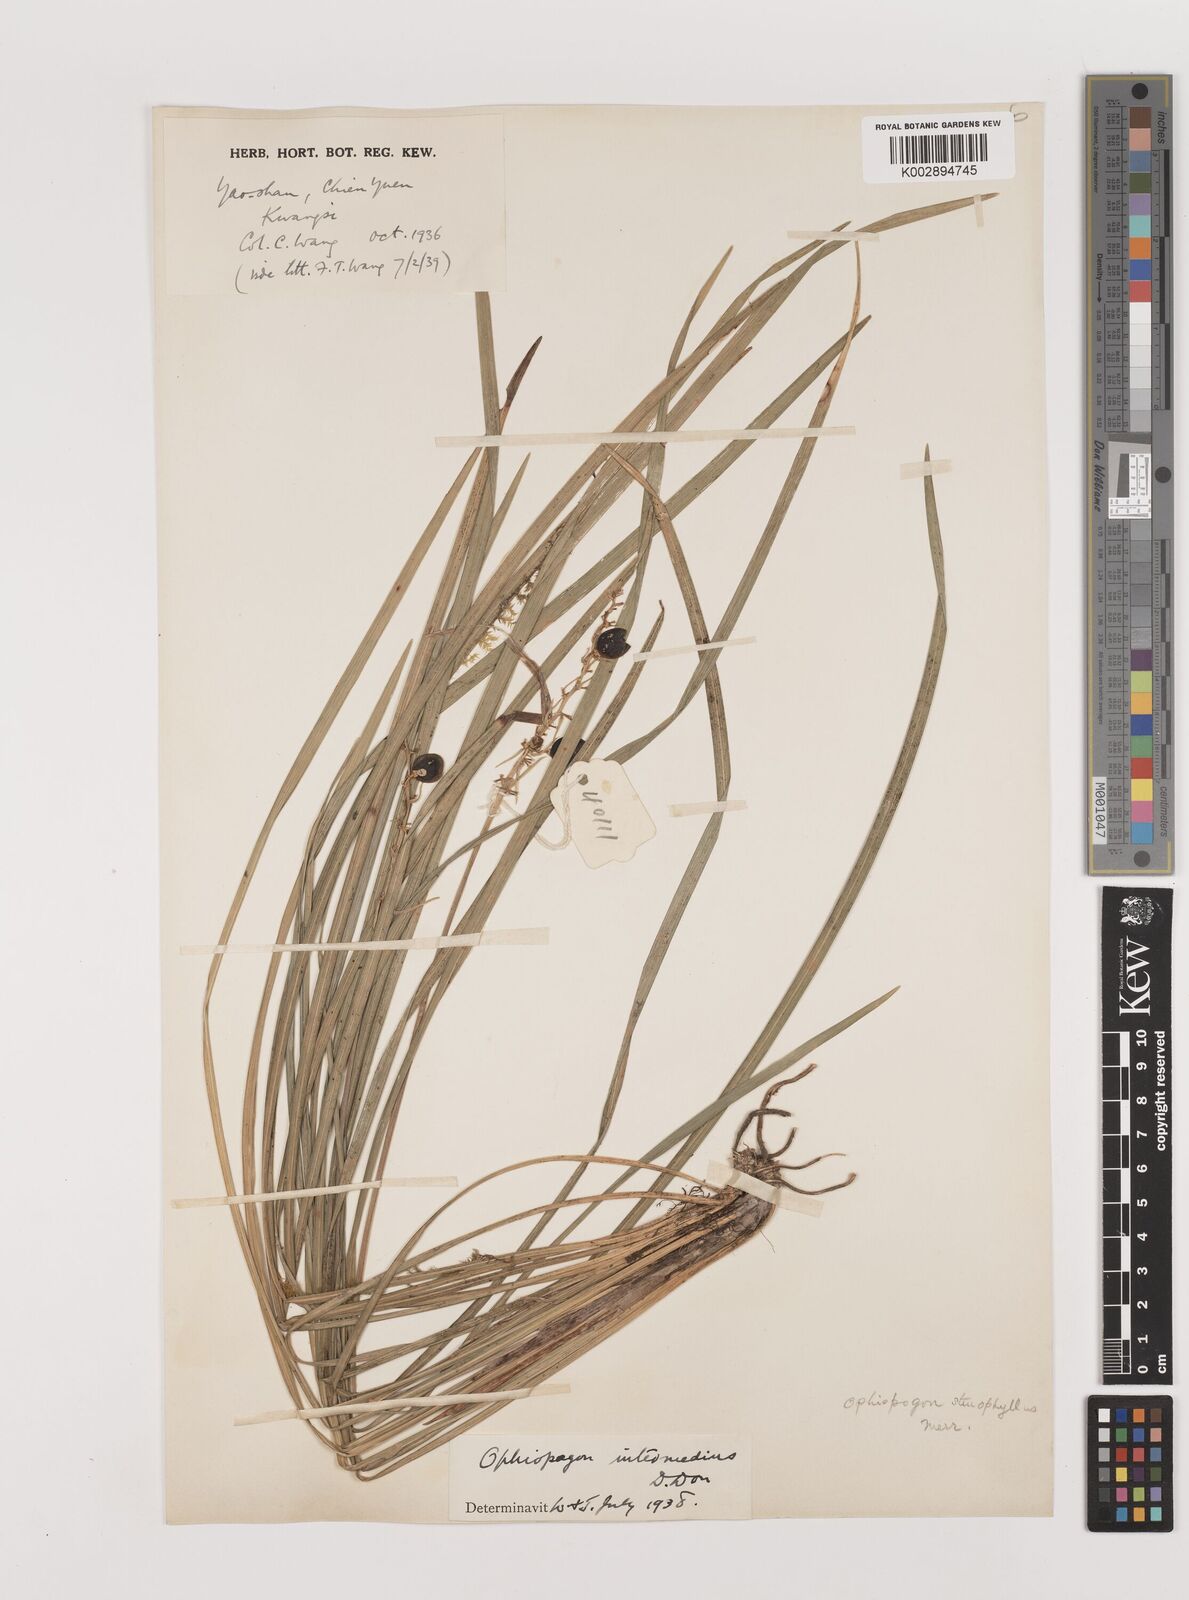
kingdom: Plantae
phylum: Tracheophyta
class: Liliopsida
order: Asparagales
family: Asparagaceae
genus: Ophiopogon
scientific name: Ophiopogon intermedius
